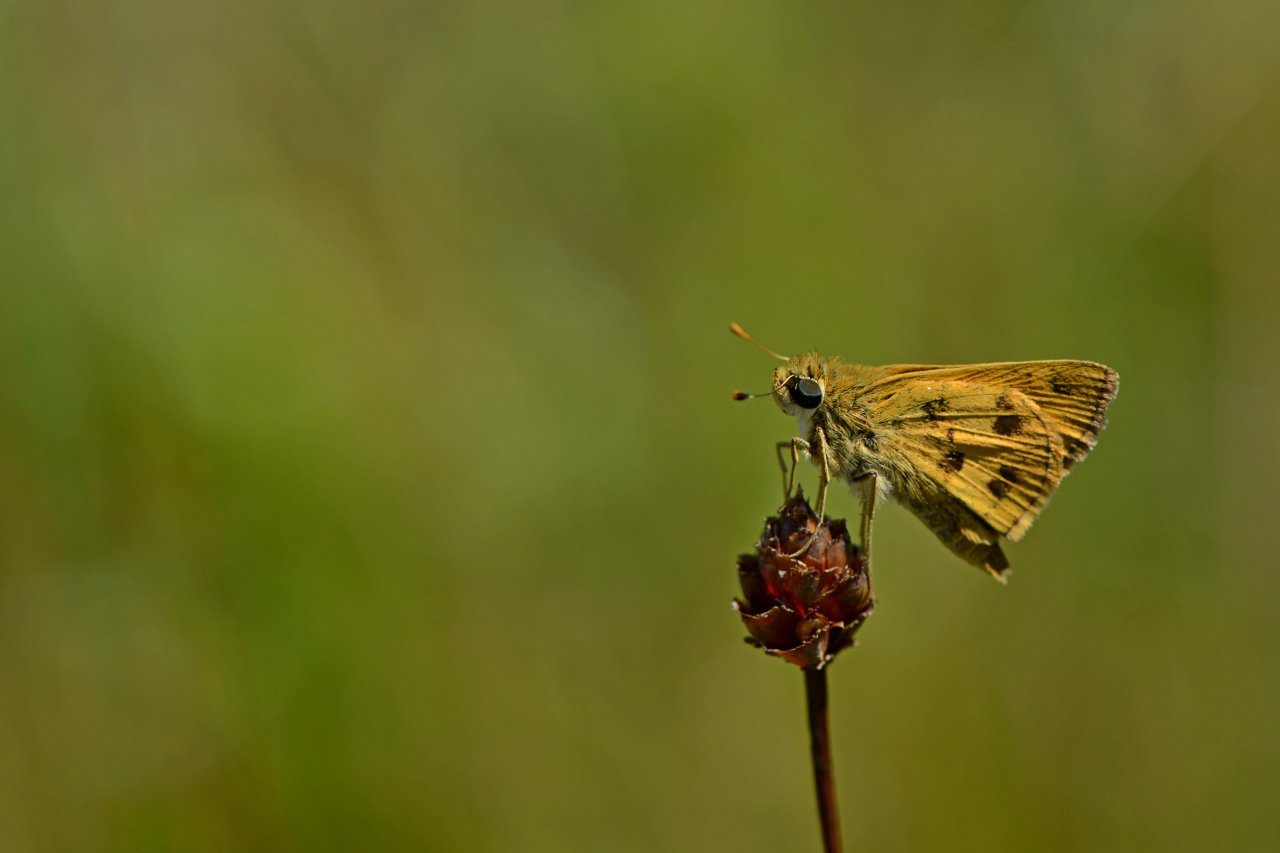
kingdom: Animalia
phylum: Arthropoda
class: Insecta
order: Lepidoptera
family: Hesperiidae
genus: Polites
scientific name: Polites vibex
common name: Whirlabout
